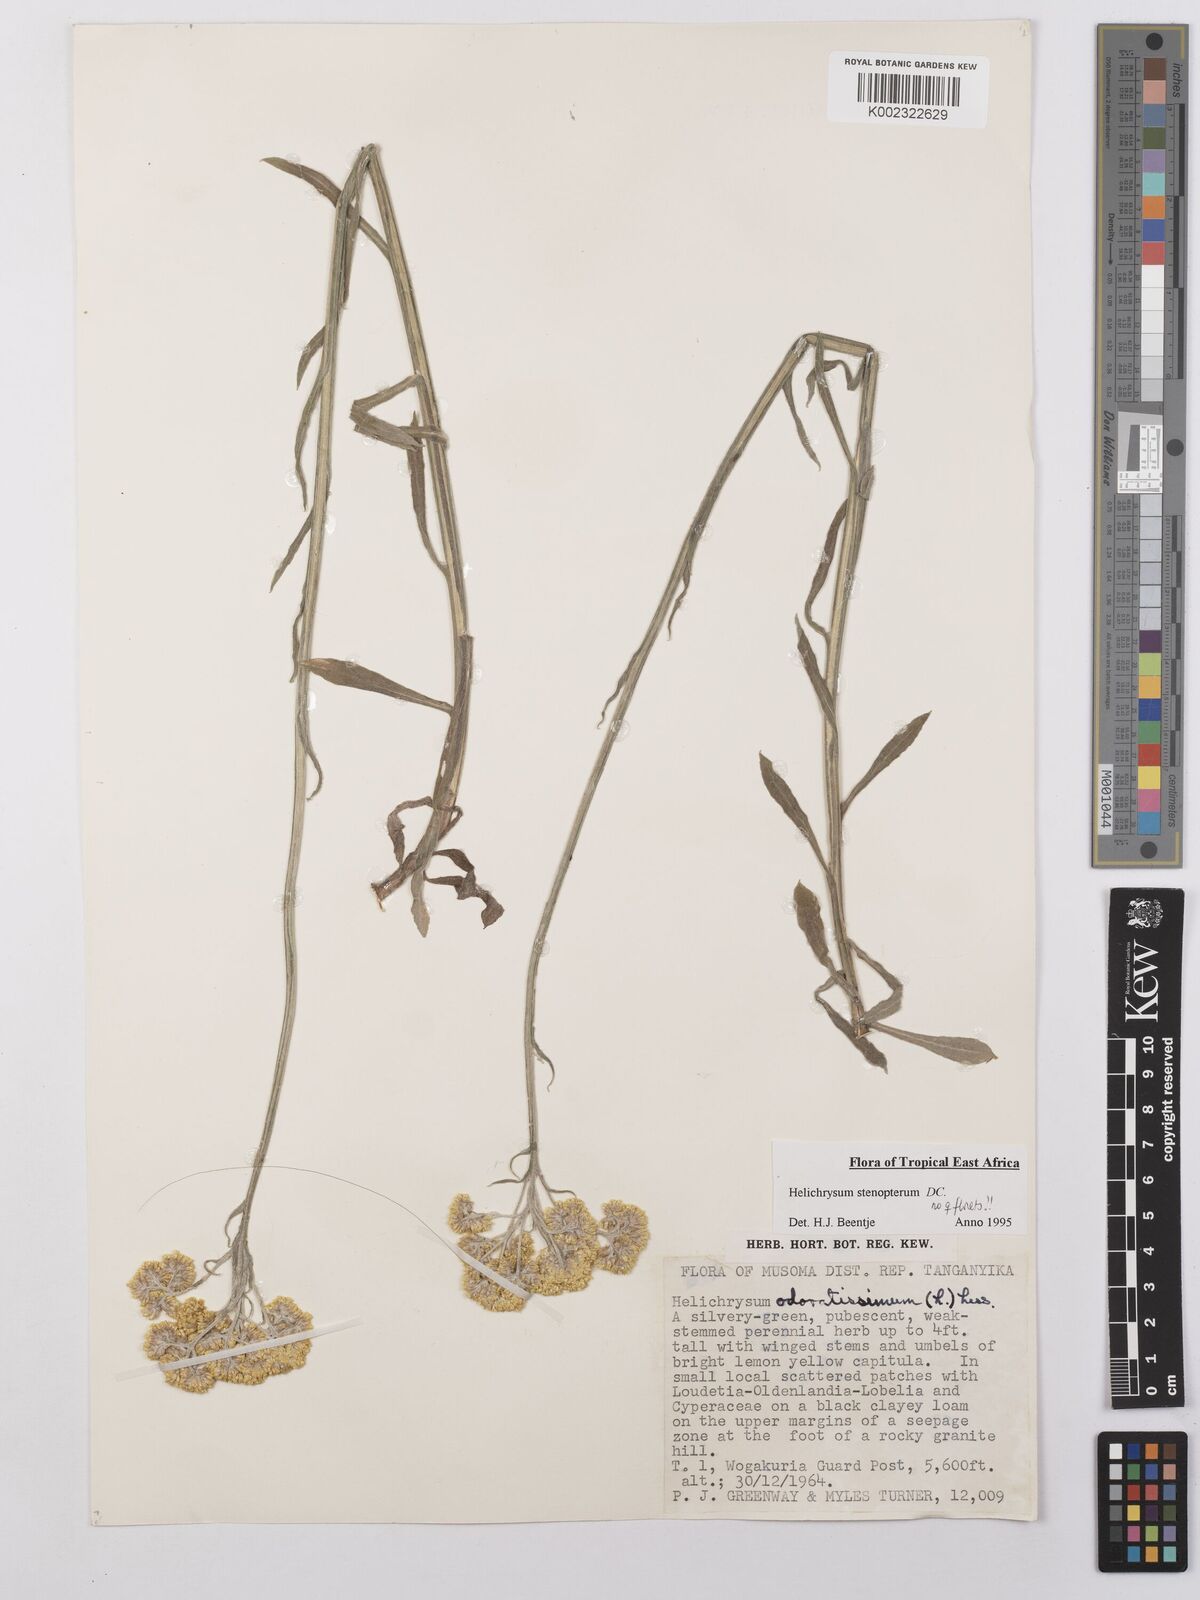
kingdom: Plantae
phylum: Tracheophyta
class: Magnoliopsida
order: Asterales
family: Asteraceae
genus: Helichrysum
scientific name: Helichrysum stenopterum
